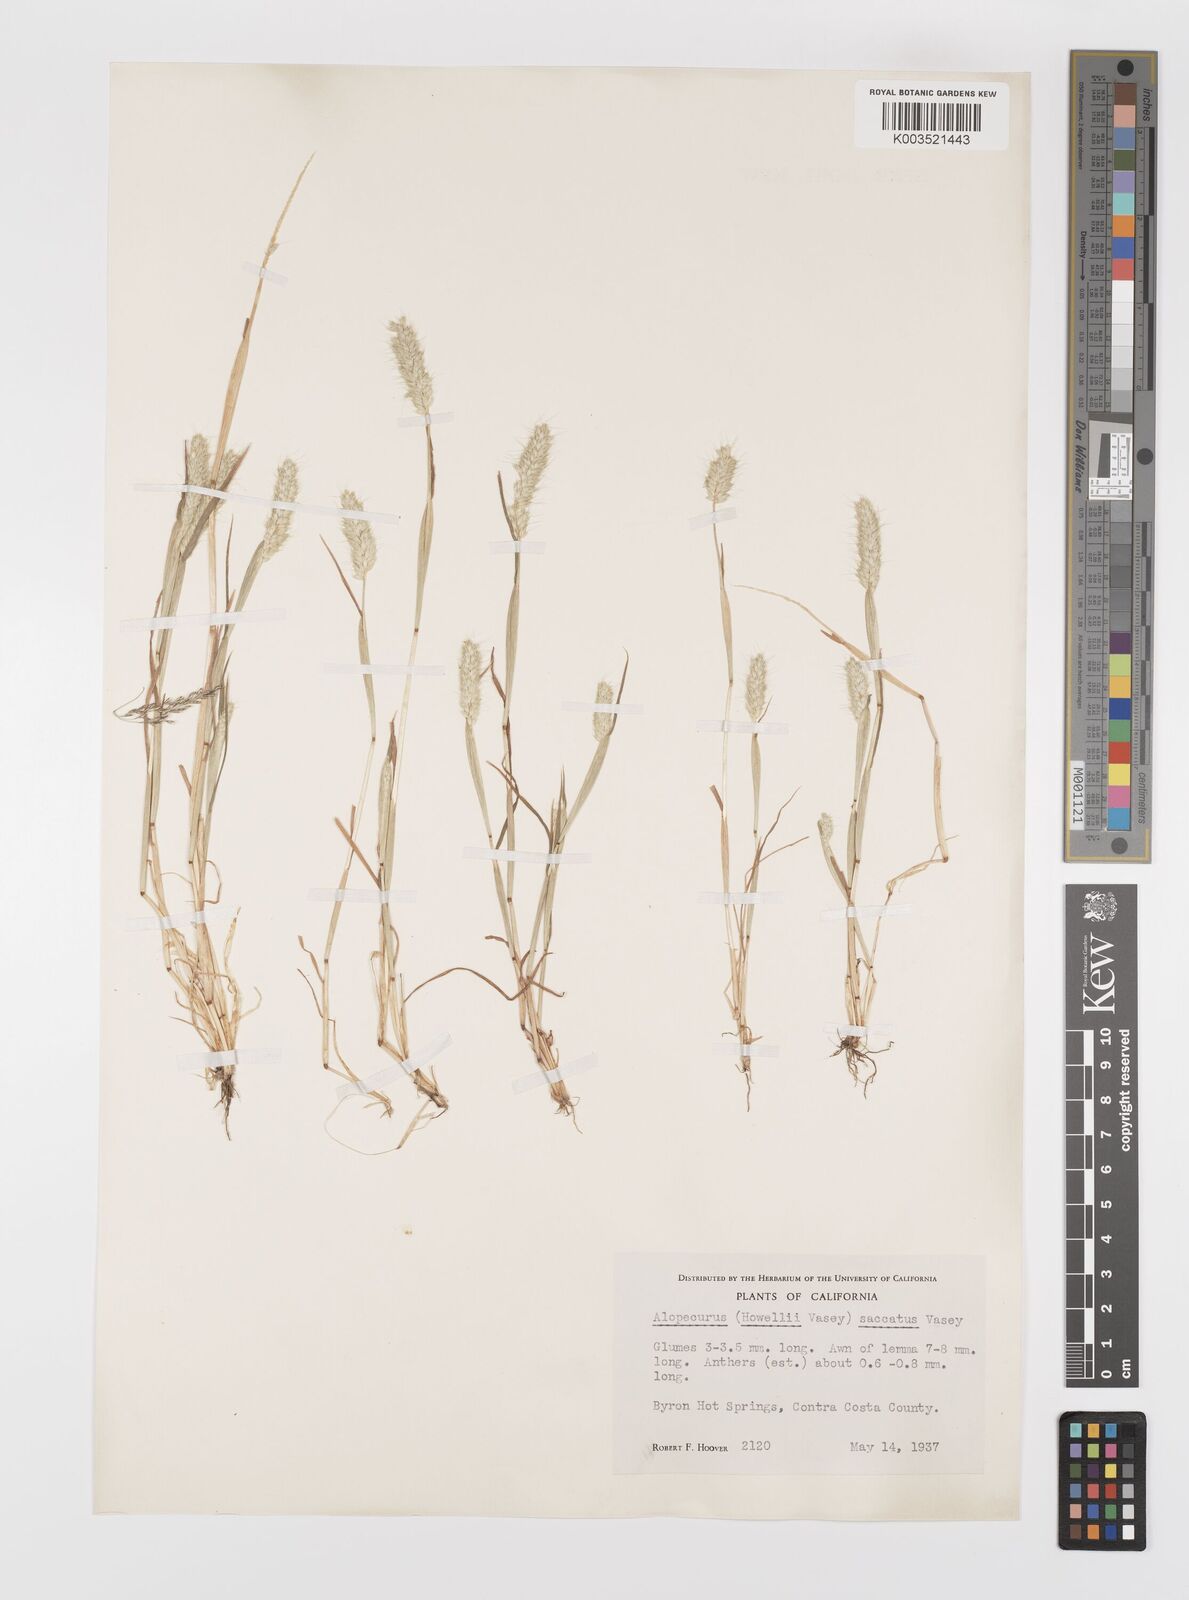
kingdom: Plantae
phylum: Tracheophyta
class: Liliopsida
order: Poales
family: Poaceae
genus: Alopecurus
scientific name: Alopecurus saccatus
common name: Pacific foxtail
